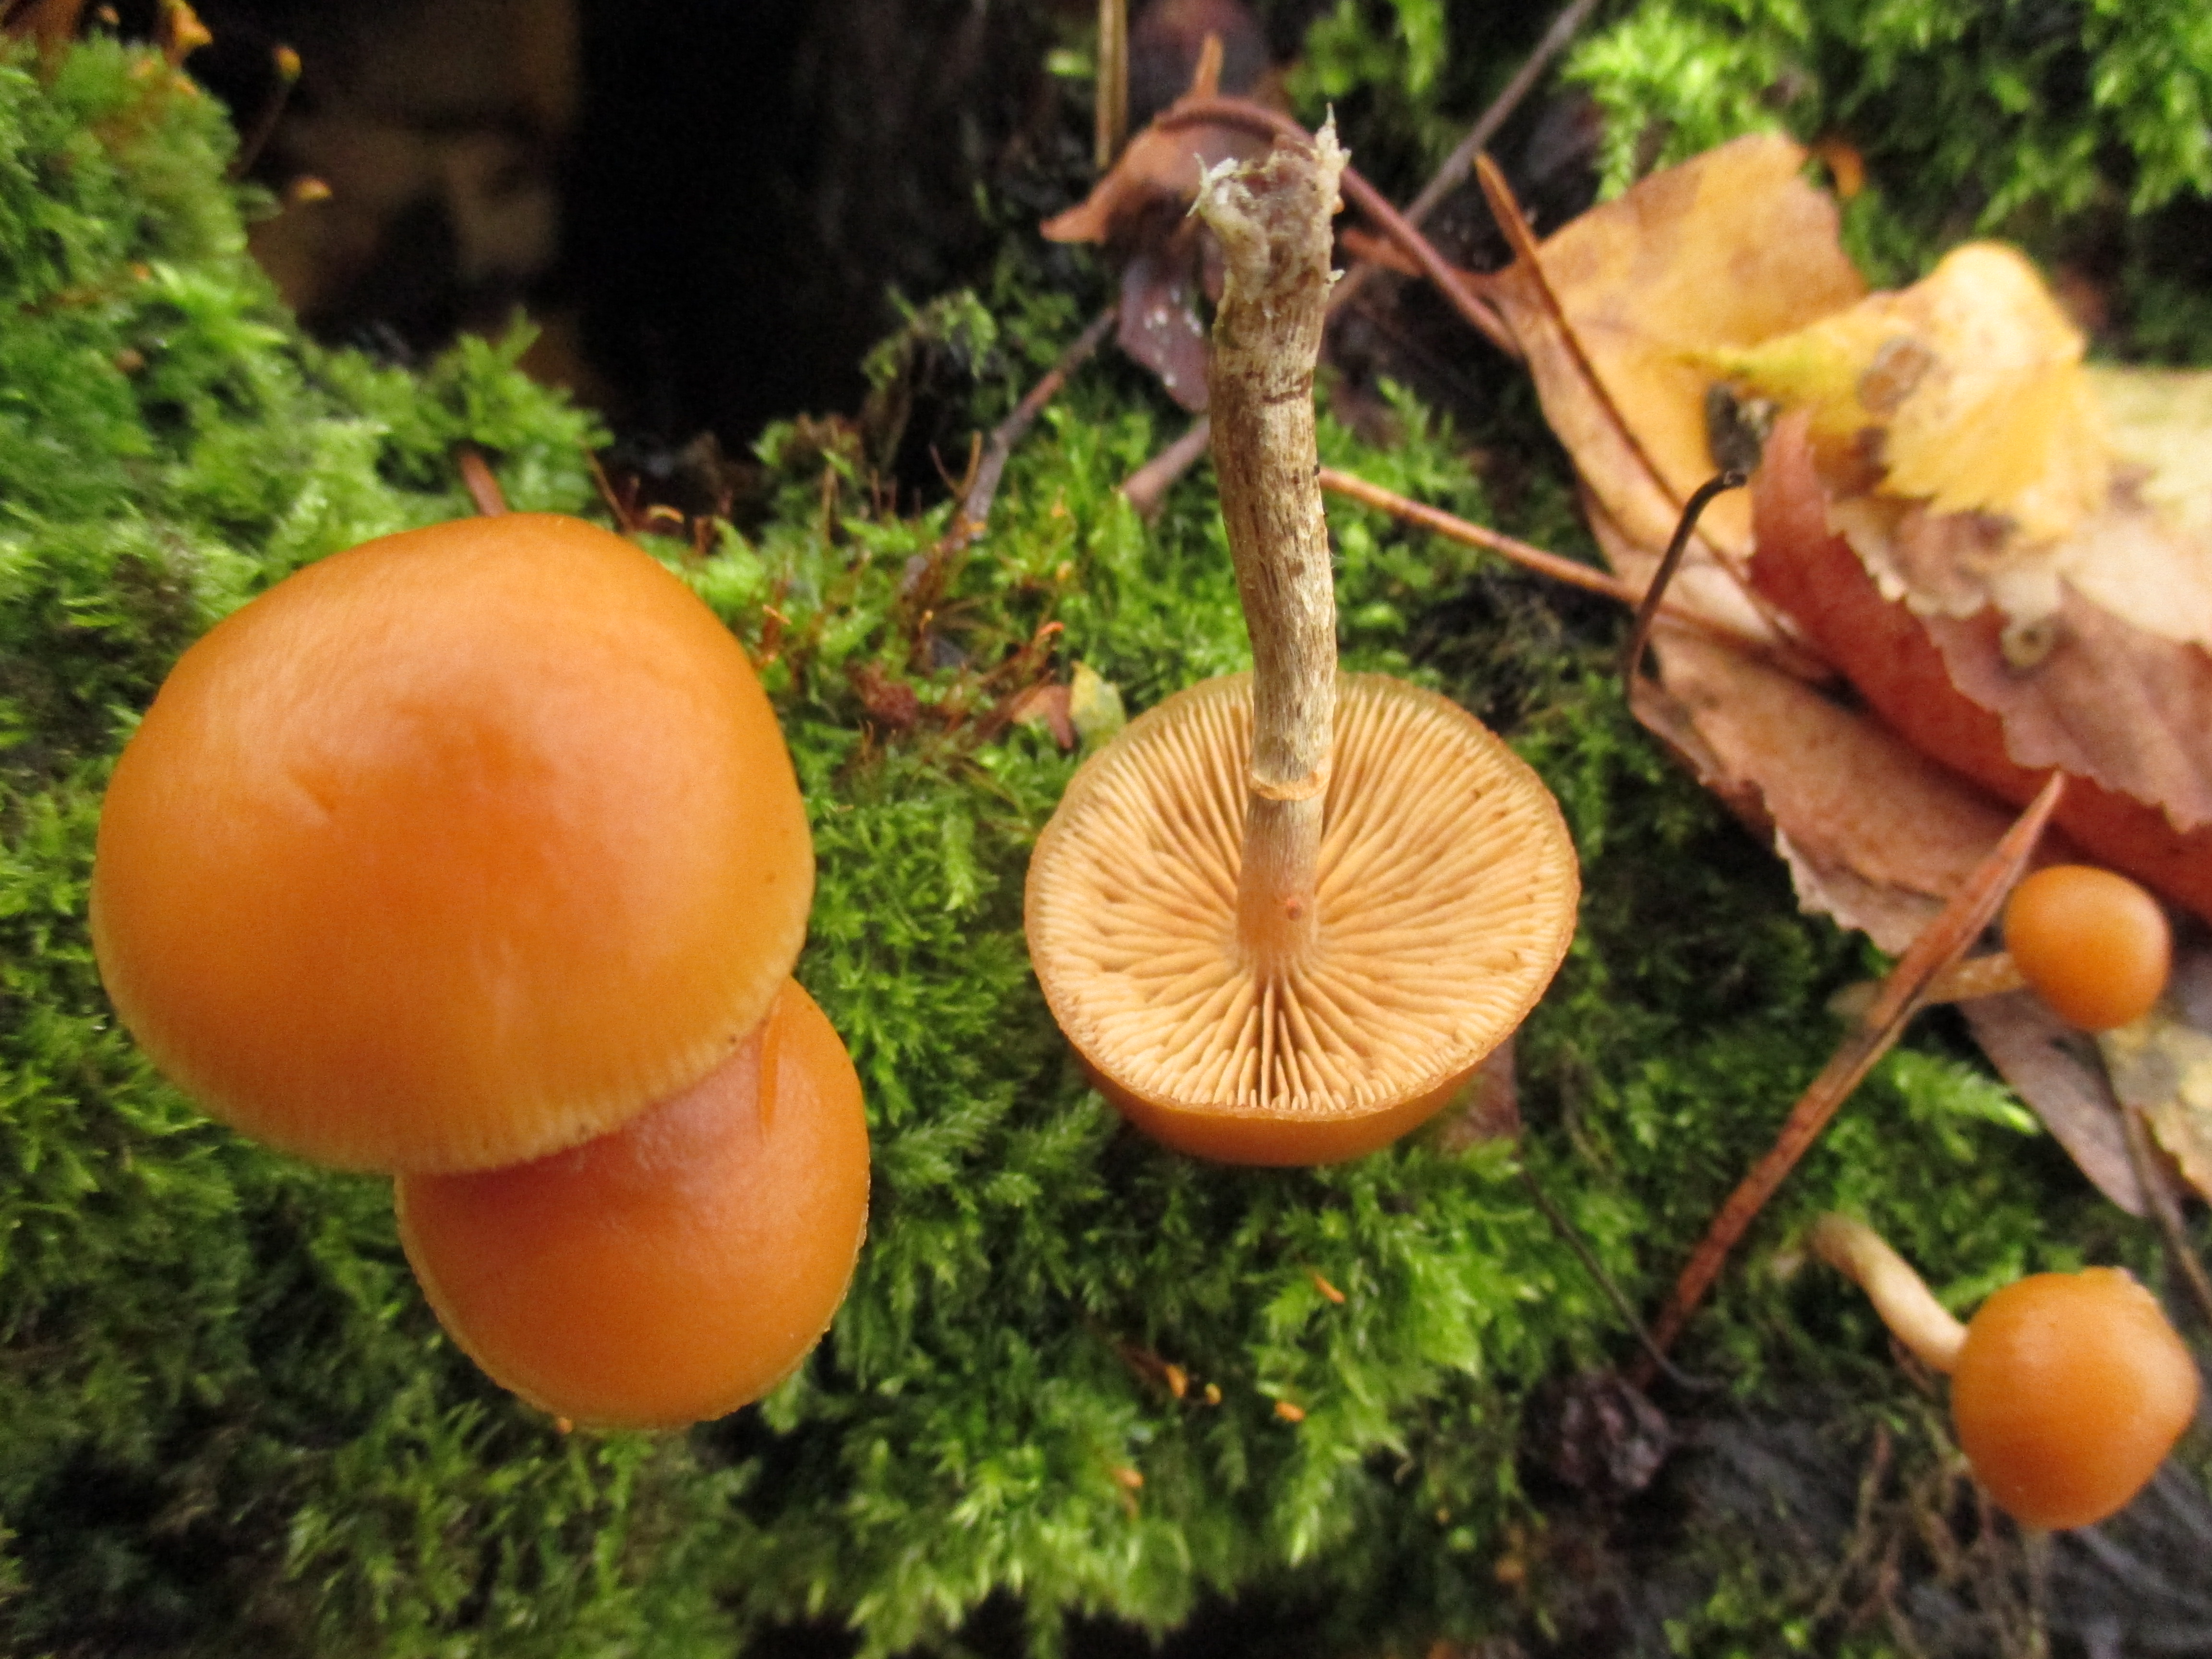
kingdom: Fungi
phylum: Basidiomycota
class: Agaricomycetes
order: Agaricales
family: Hymenogastraceae
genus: Galerina
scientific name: Galerina marginata
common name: Funeral bell
